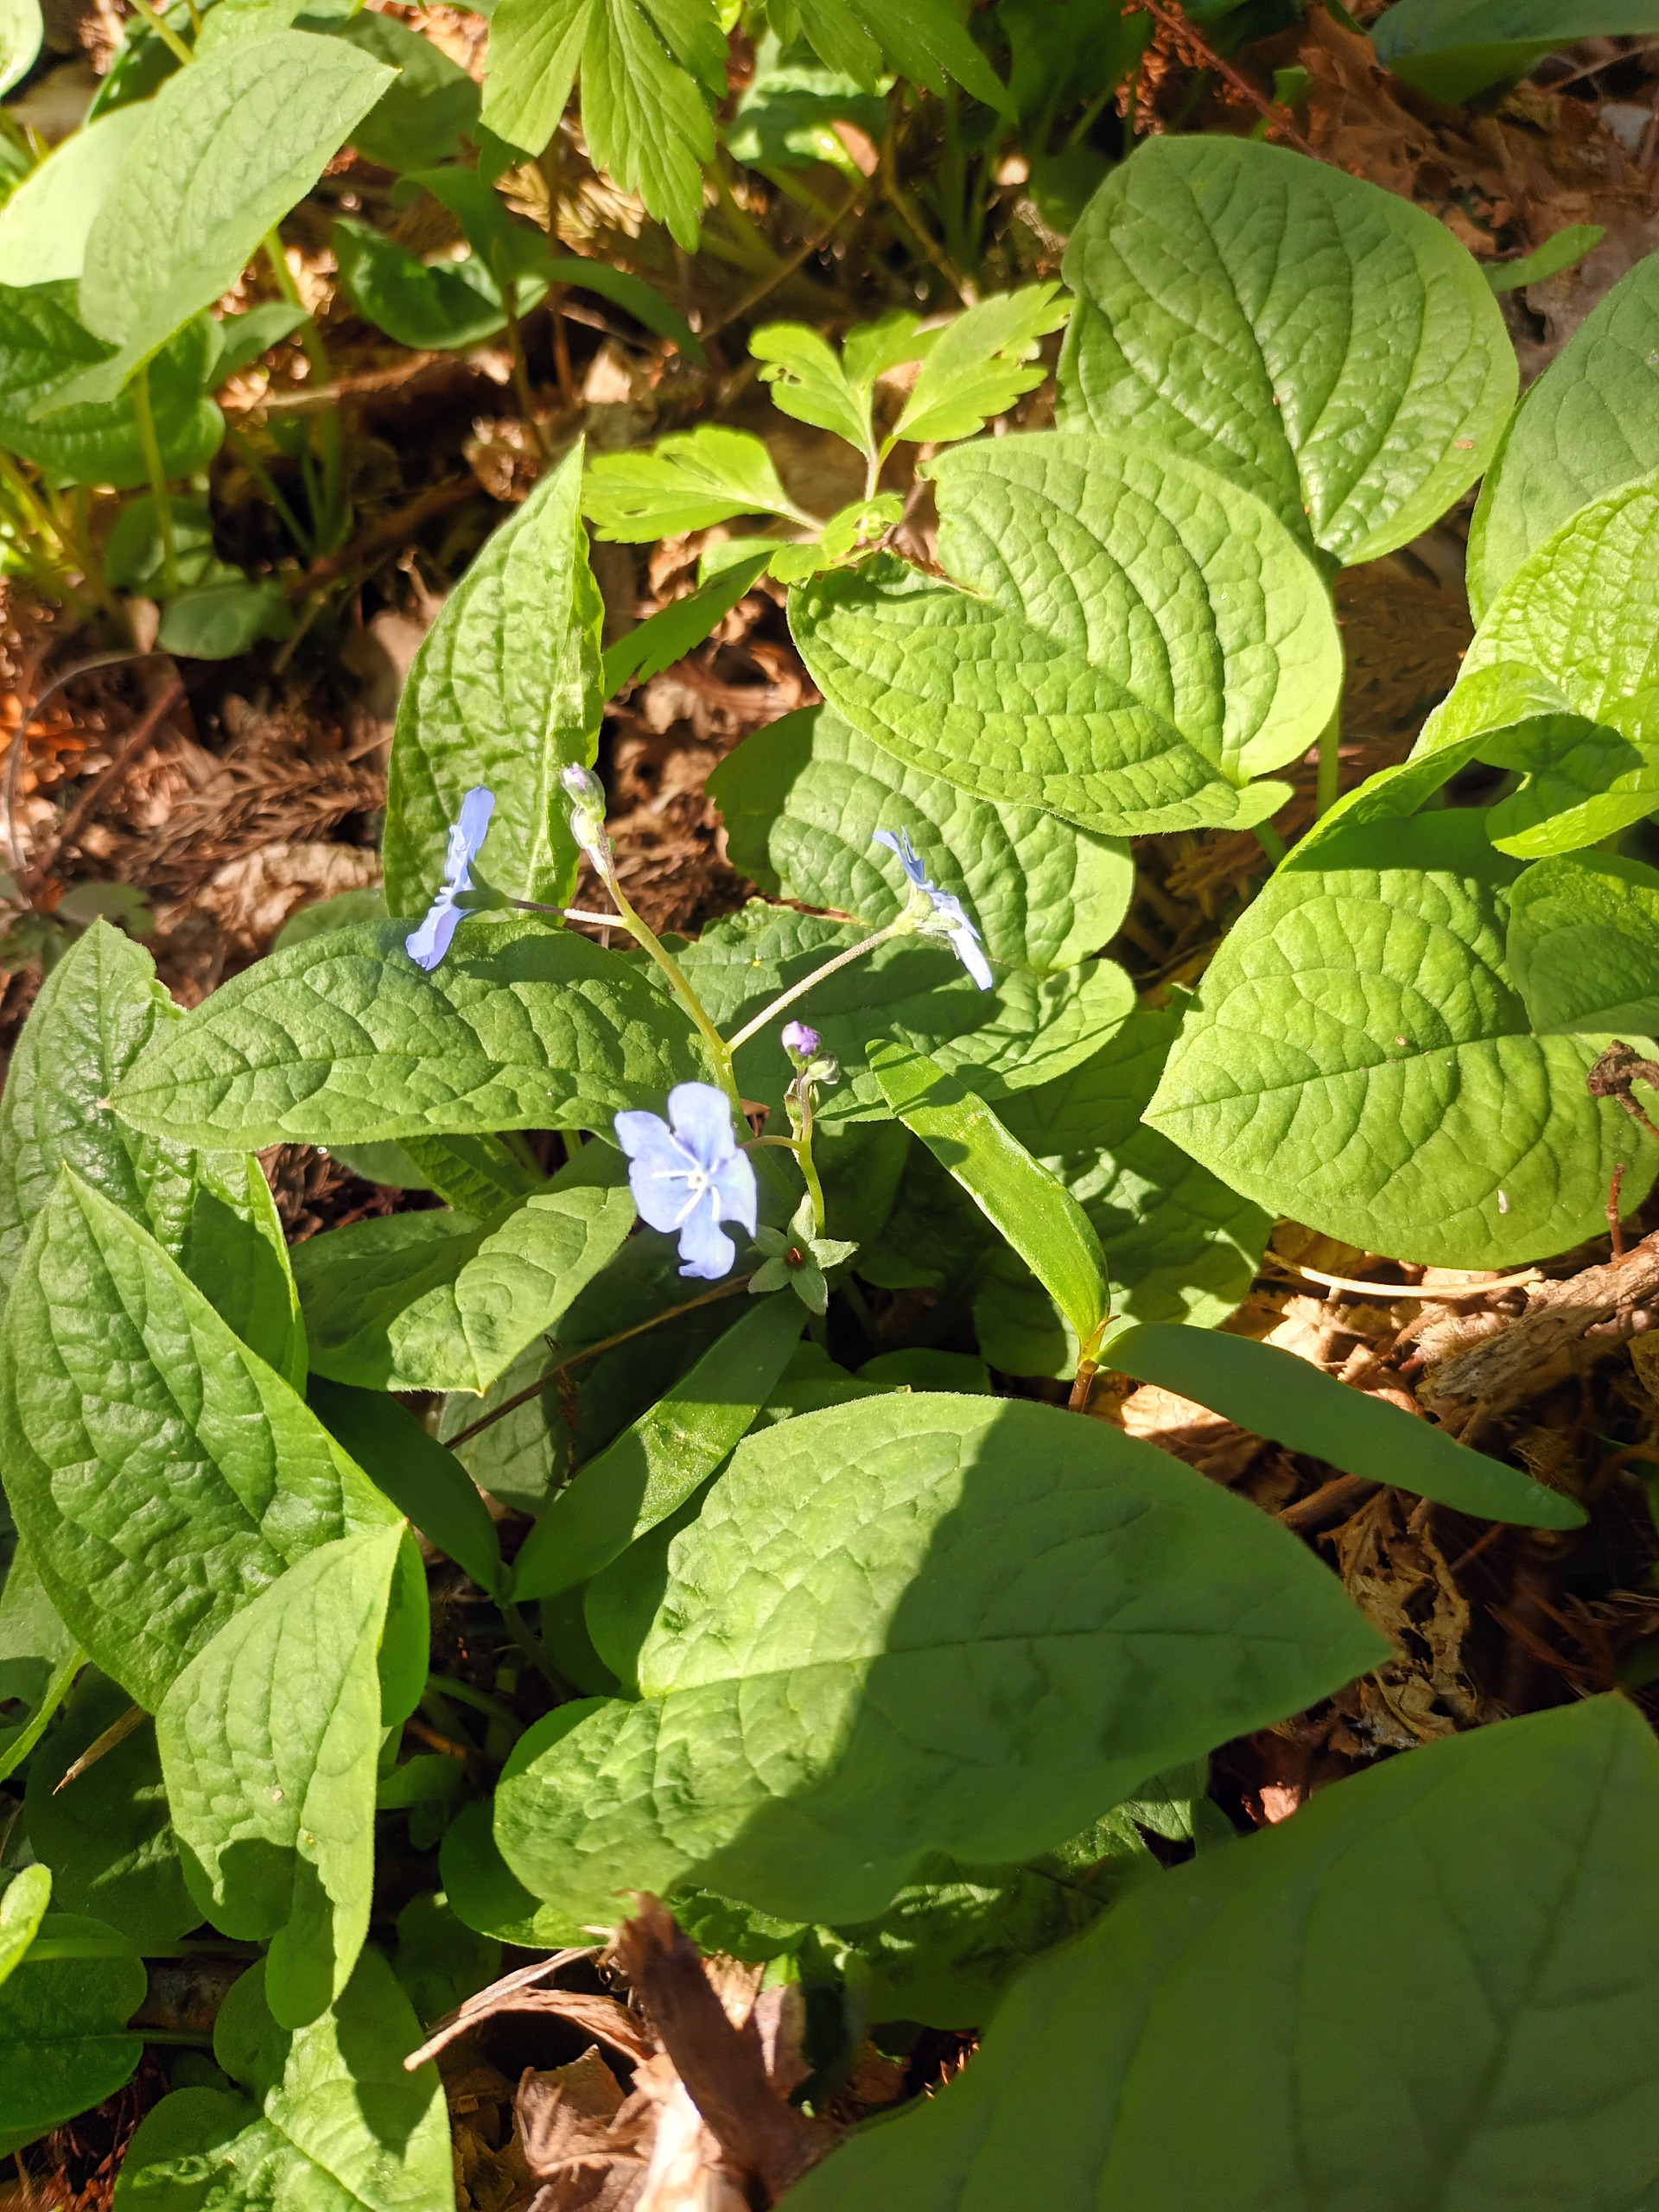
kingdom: Plantae
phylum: Tracheophyta
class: Magnoliopsida
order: Boraginales
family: Boraginaceae
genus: Omphalodes
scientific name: Omphalodes verna
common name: Vår-kærminde
